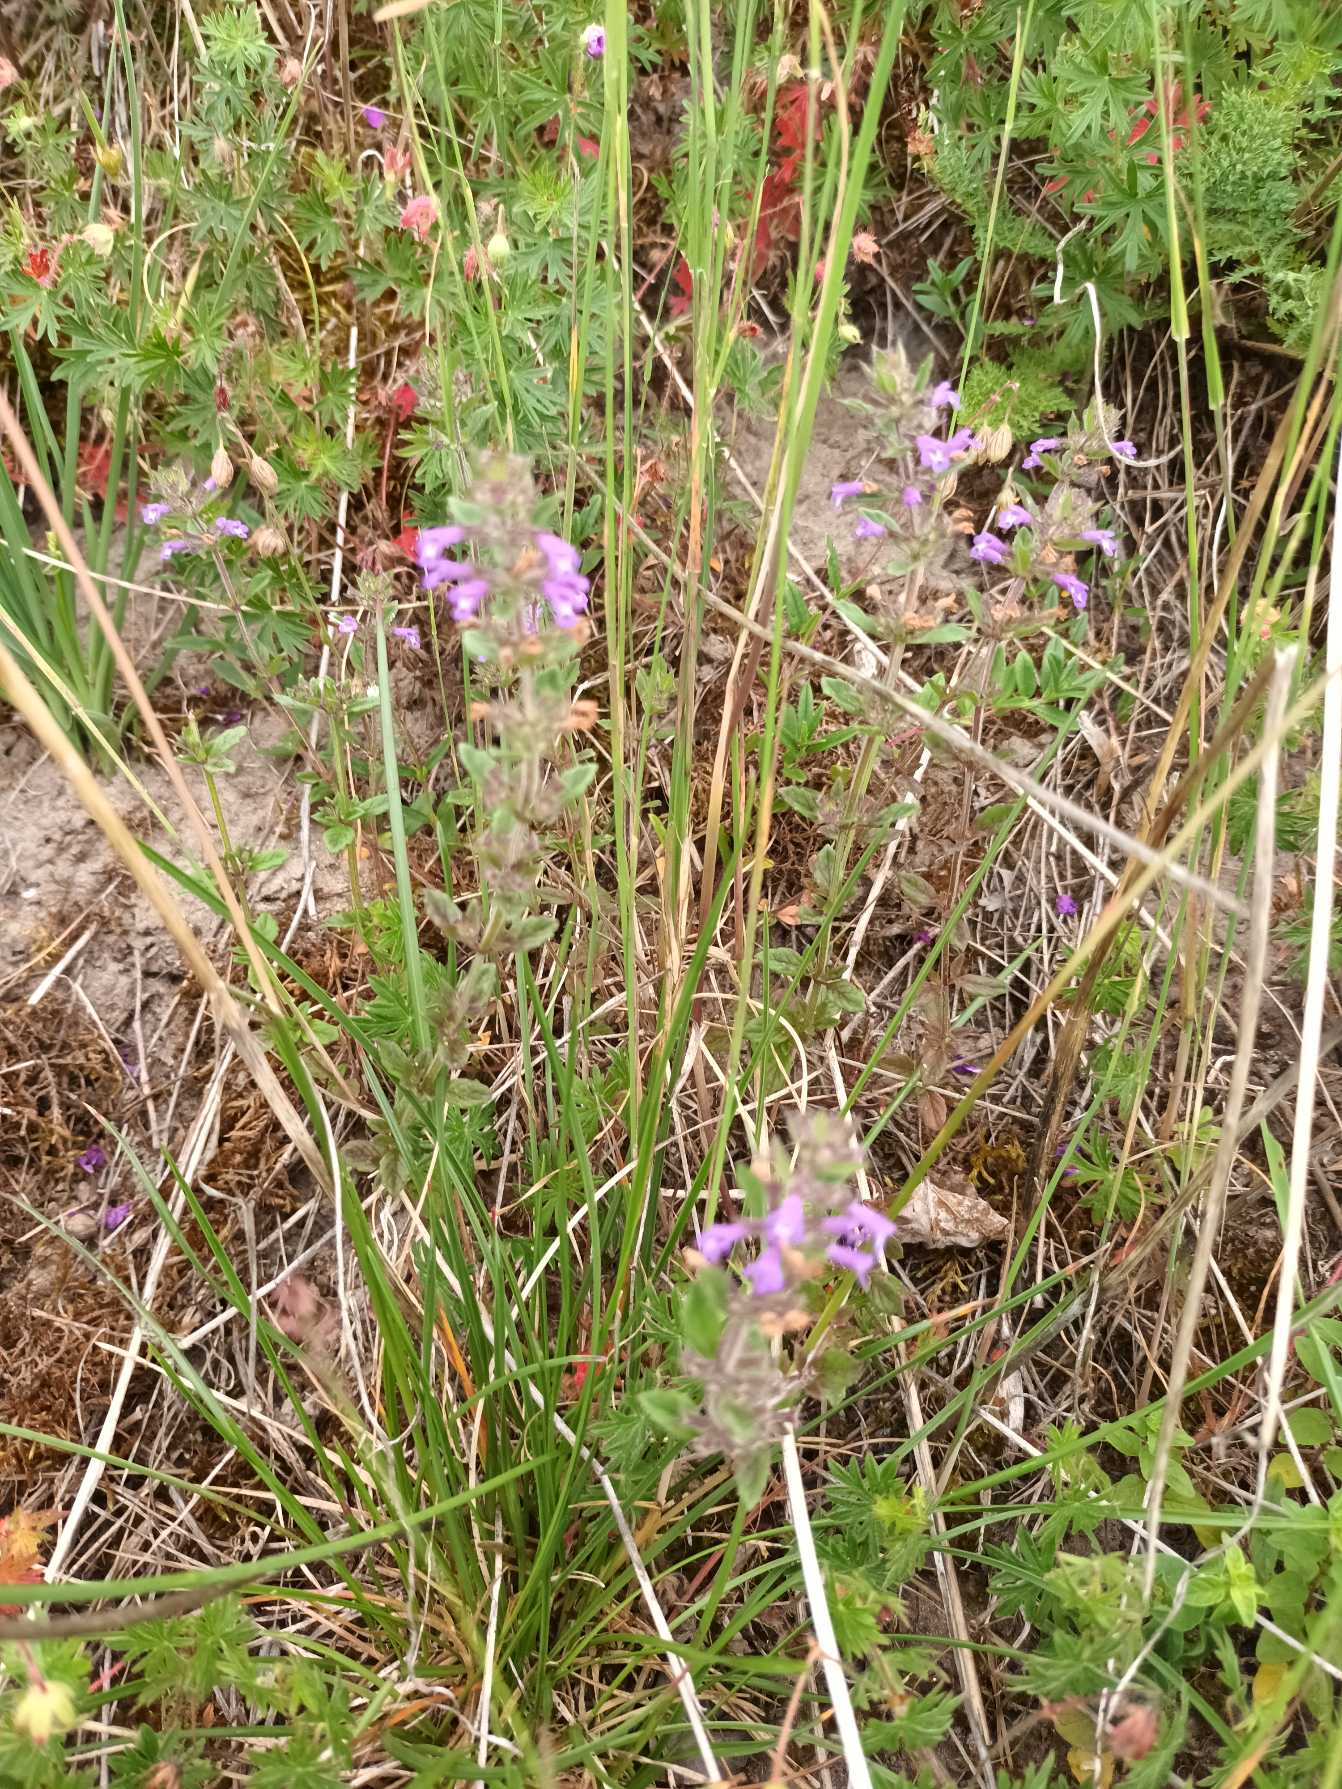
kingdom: Plantae
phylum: Tracheophyta
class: Magnoliopsida
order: Lamiales
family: Lamiaceae
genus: Clinopodium
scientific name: Clinopodium acinos
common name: Voldtimian
